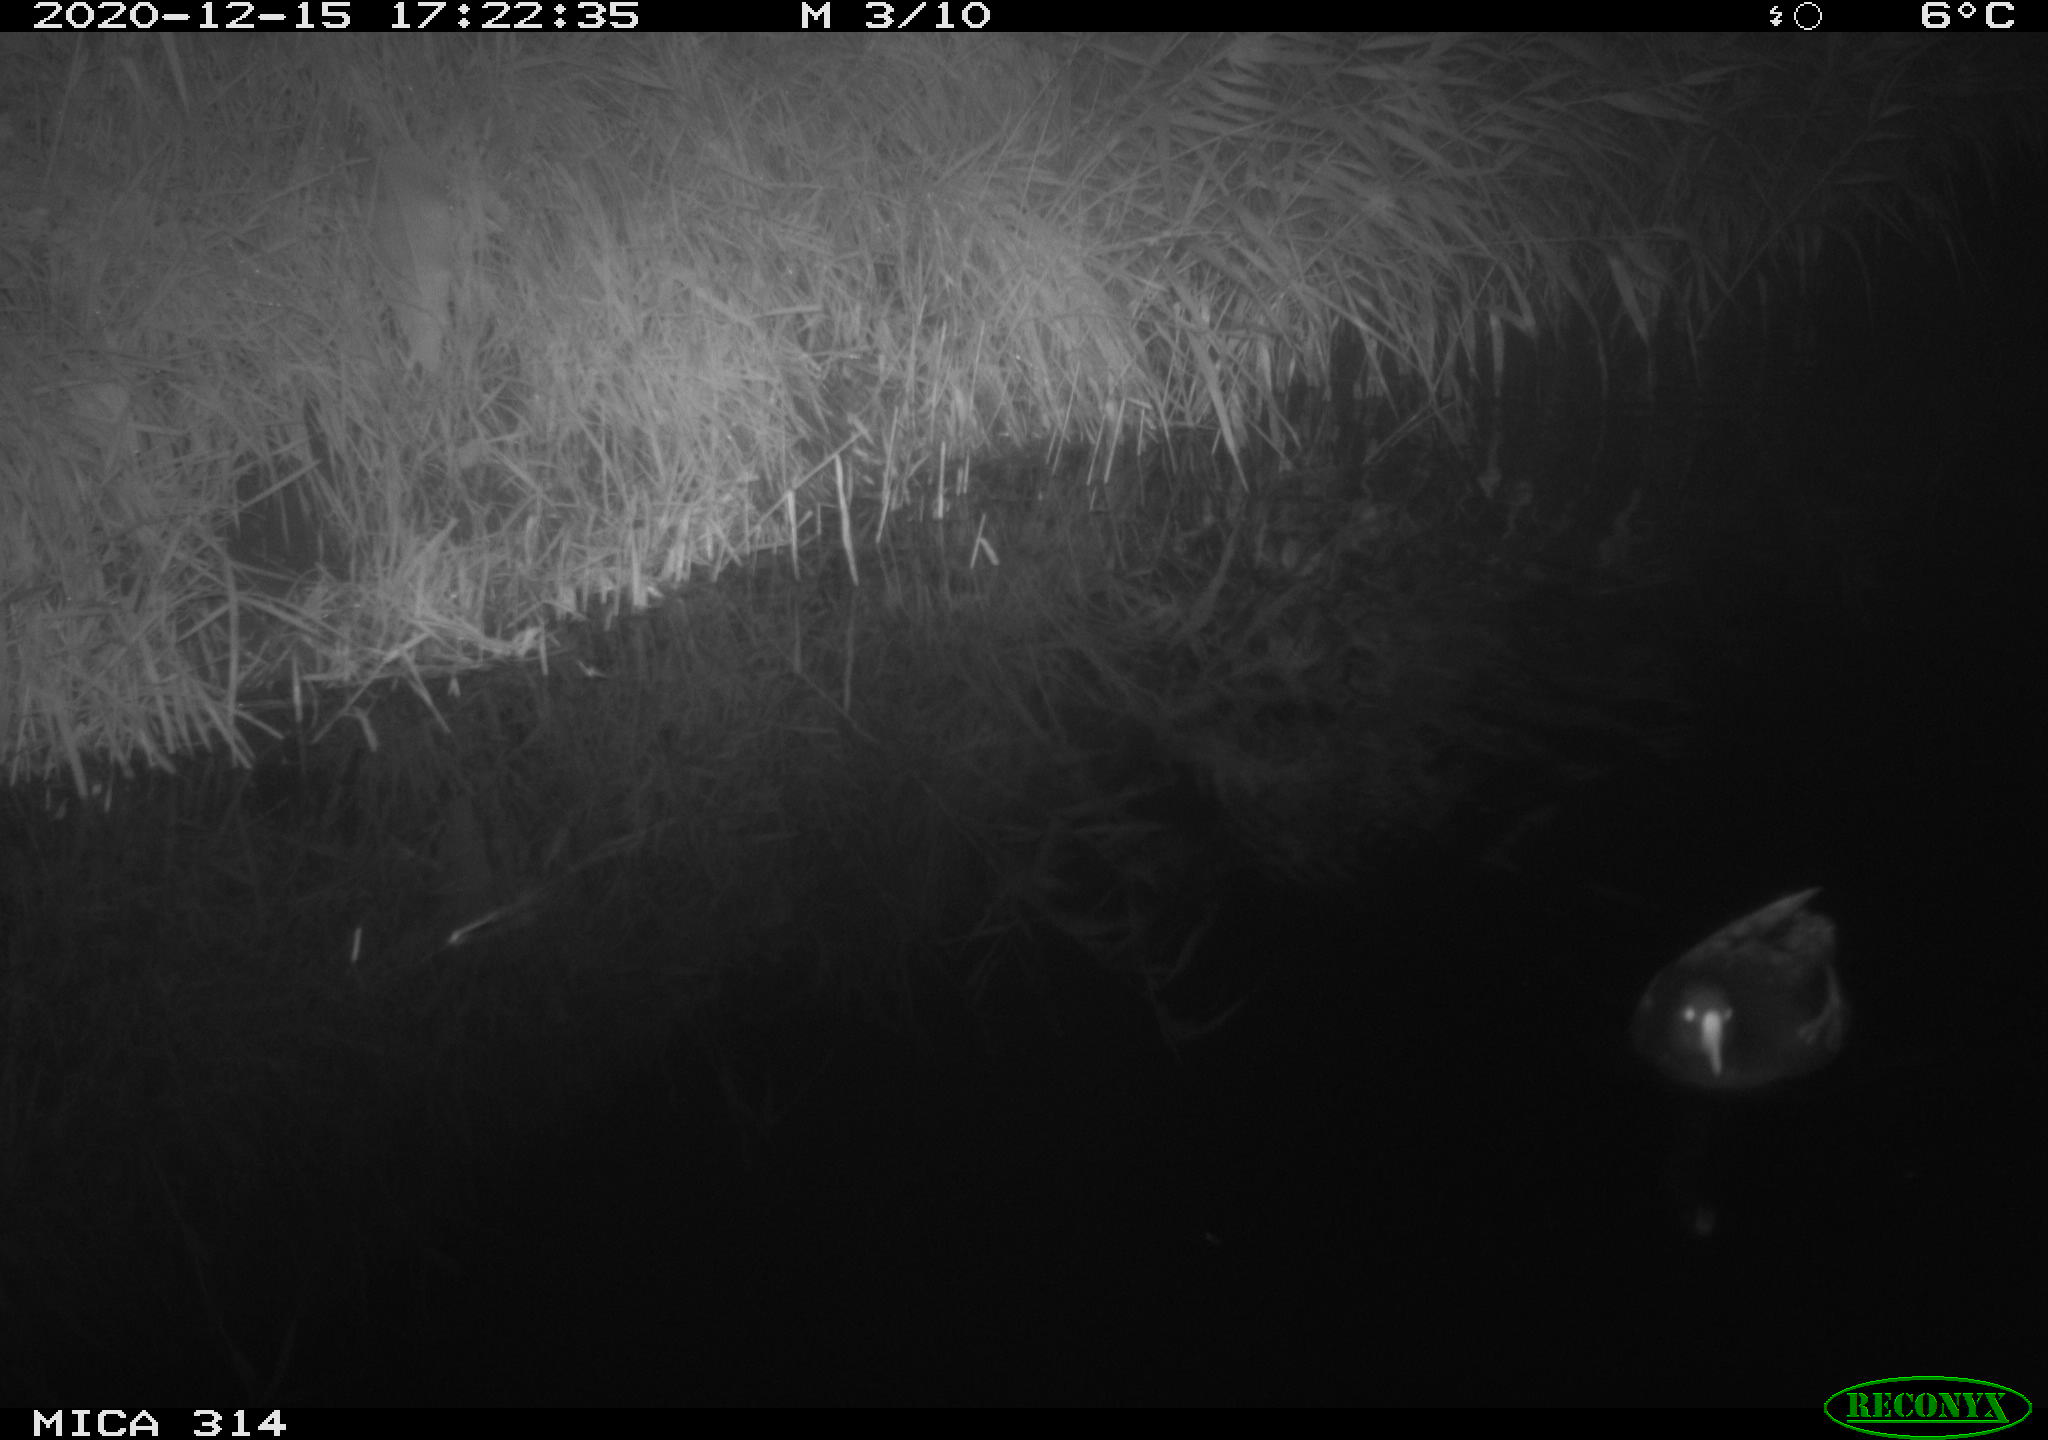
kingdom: Animalia
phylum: Chordata
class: Aves
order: Gruiformes
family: Rallidae
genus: Gallinula
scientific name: Gallinula chloropus
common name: Common moorhen
